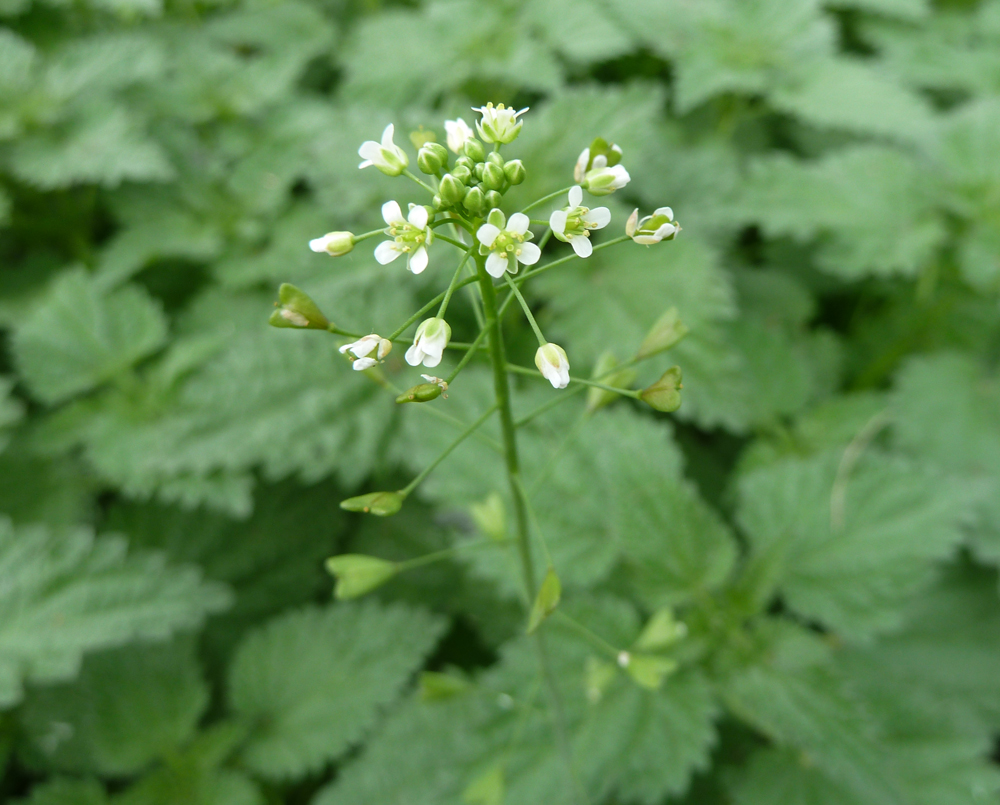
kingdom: Plantae
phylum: Tracheophyta
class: Magnoliopsida
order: Brassicales
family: Brassicaceae
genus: Capsella
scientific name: Capsella bursa-pastoris
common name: Shepherd's purse
